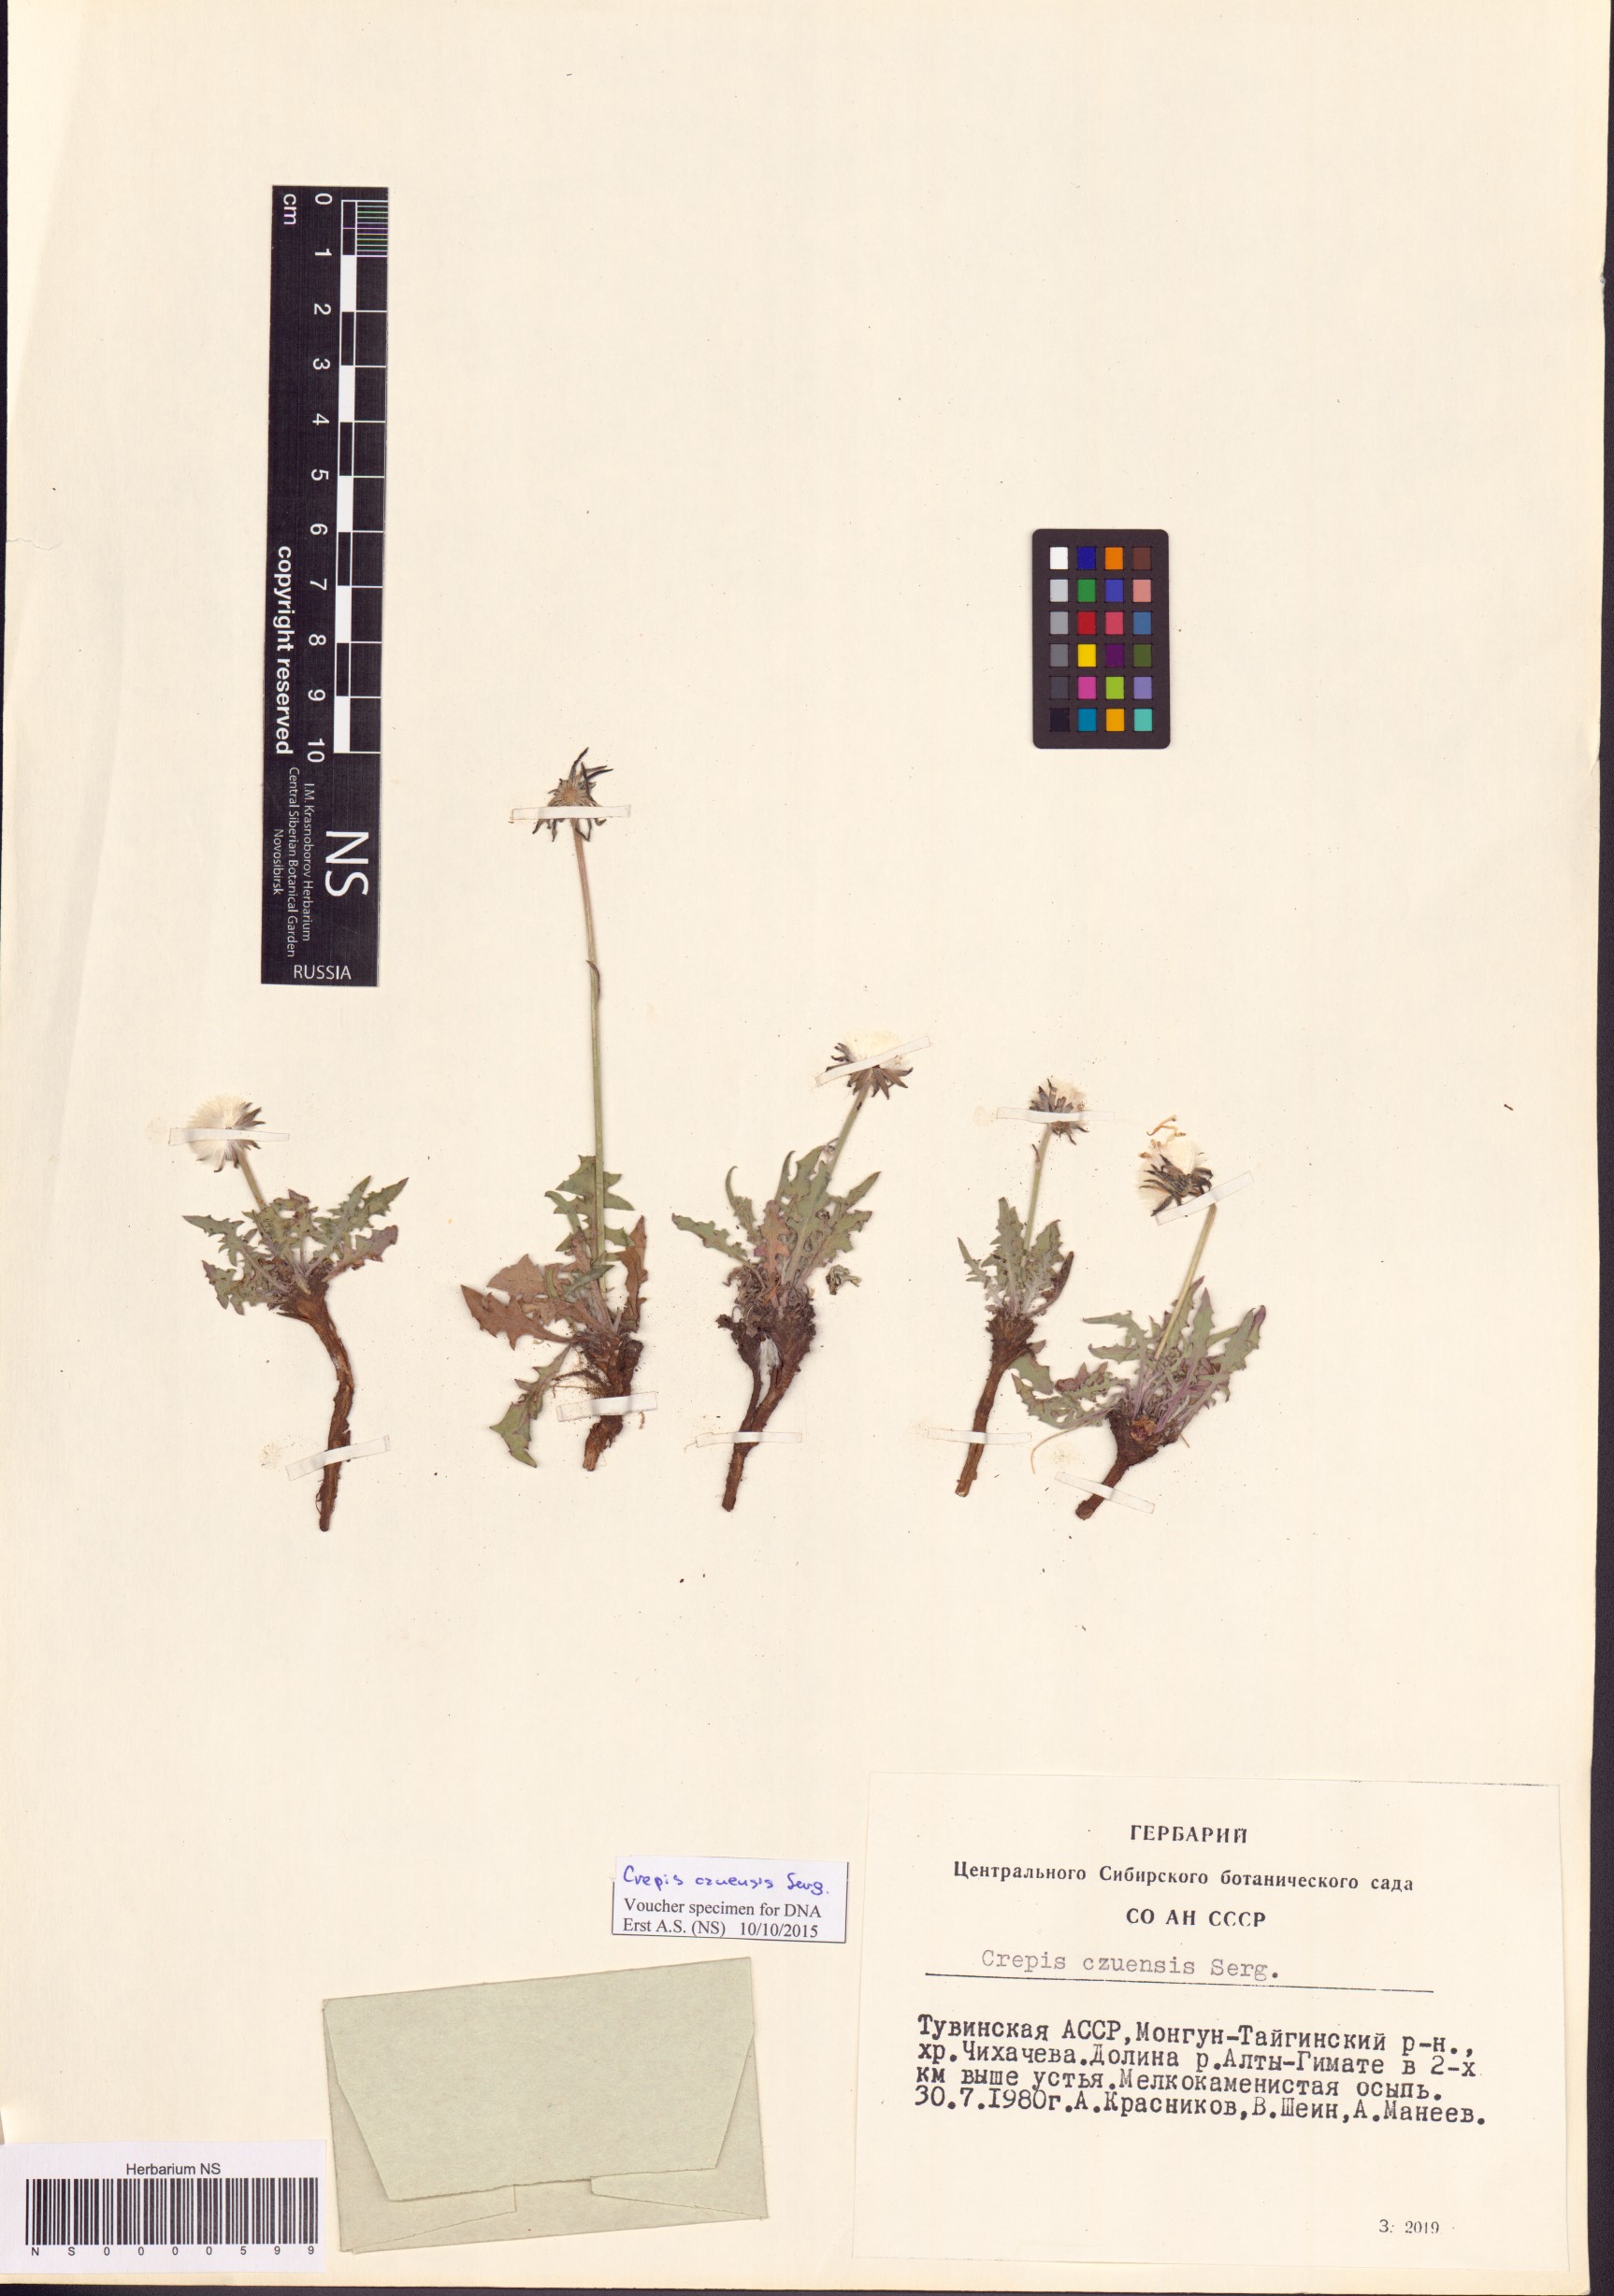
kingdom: Plantae
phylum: Tracheophyta
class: Magnoliopsida
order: Asterales
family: Asteraceae
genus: Crepis
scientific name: Crepis crocea
